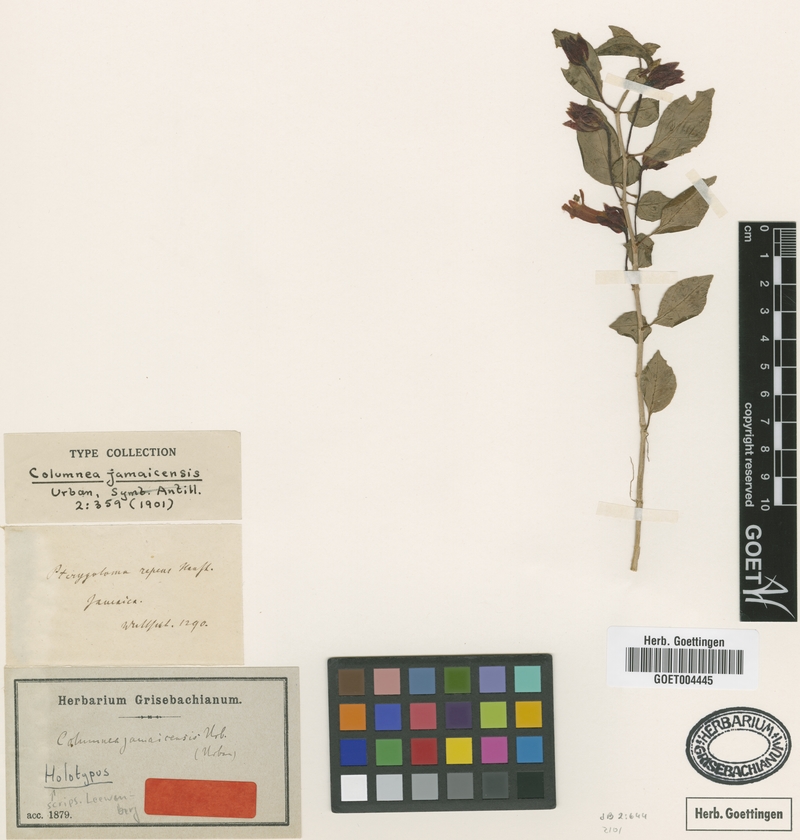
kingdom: Plantae
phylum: Tracheophyta
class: Magnoliopsida
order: Lamiales
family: Gesneriaceae
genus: Columnea
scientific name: Columnea repens
